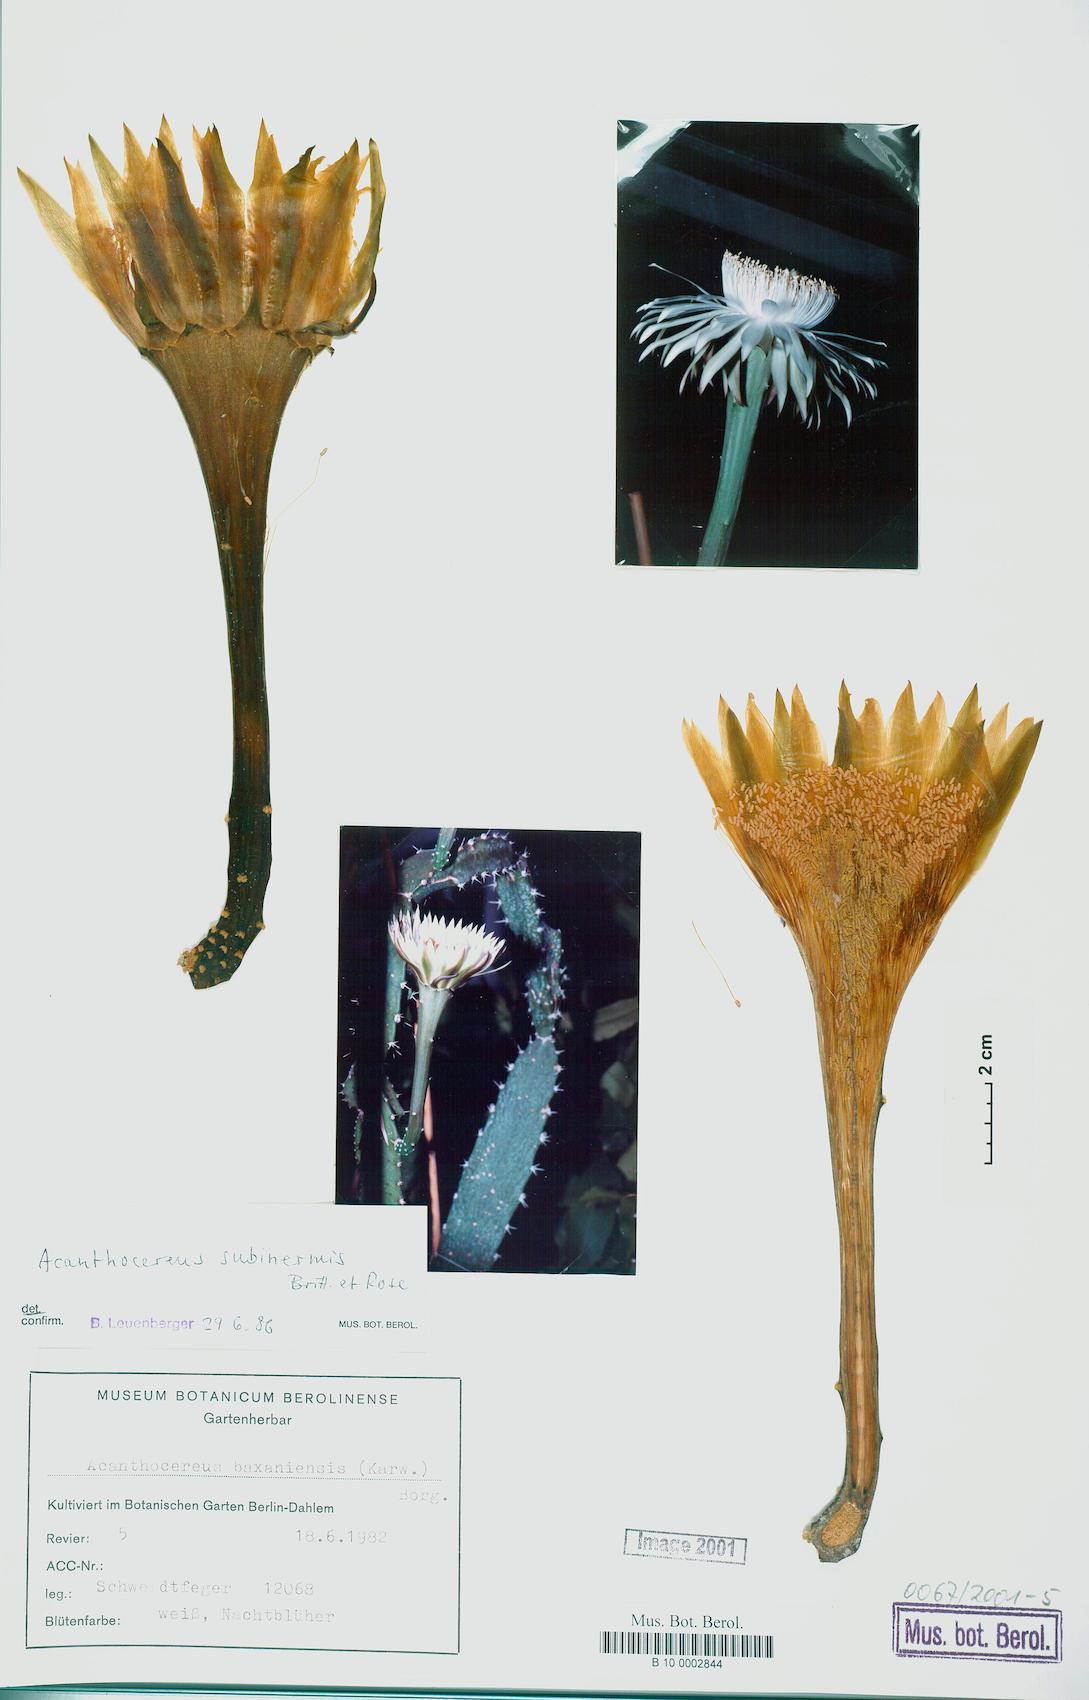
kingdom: Plantae
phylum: Tracheophyta
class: Magnoliopsida
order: Caryophyllales
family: Cactaceae
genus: Acanthocereus
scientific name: Acanthocereus tetragonus
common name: Triangle cactus
